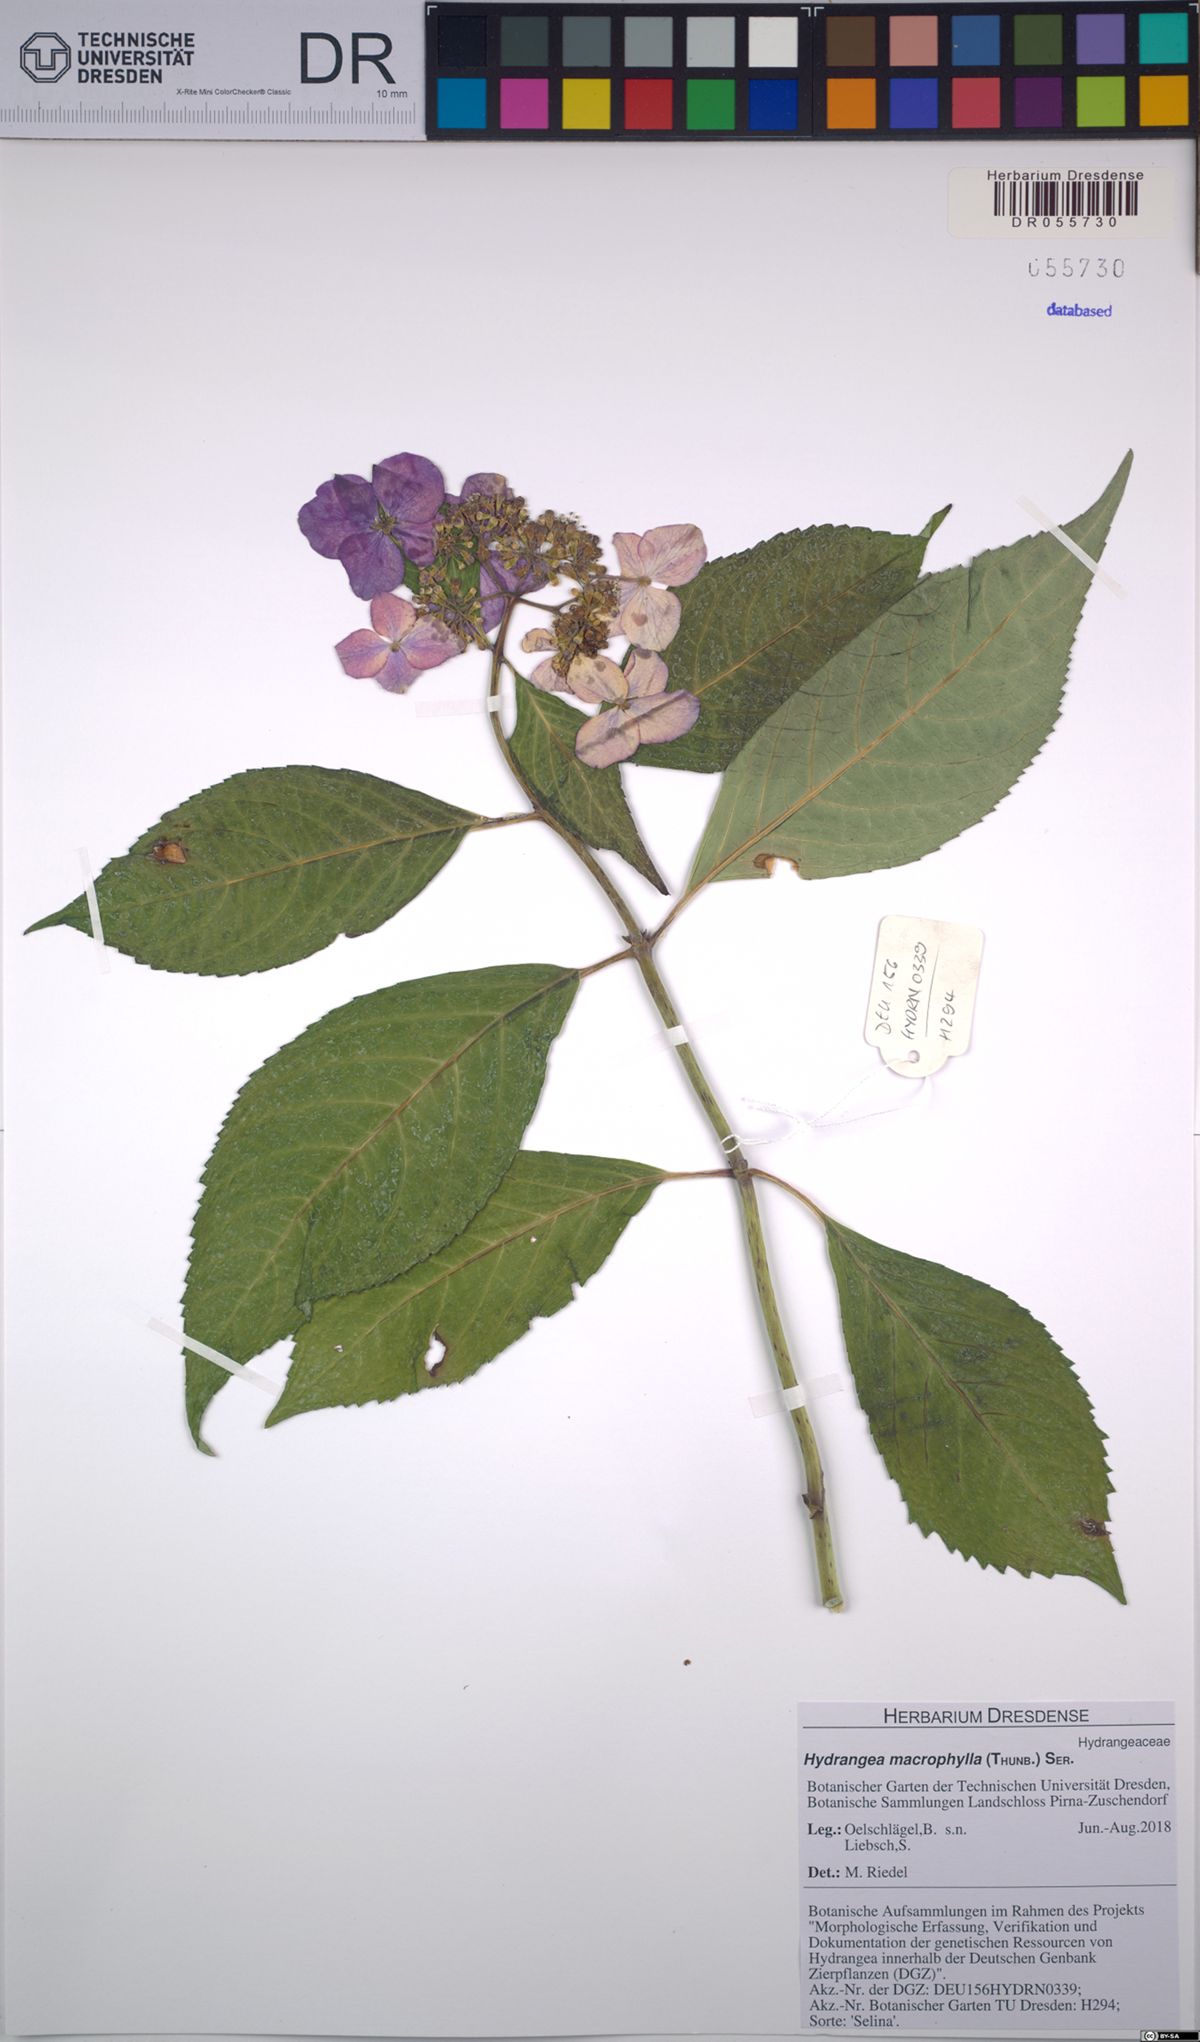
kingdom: Plantae
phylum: Tracheophyta
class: Magnoliopsida
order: Cornales
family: Hydrangeaceae
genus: Hydrangea
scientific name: Hydrangea macrophylla
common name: Hydrangea
